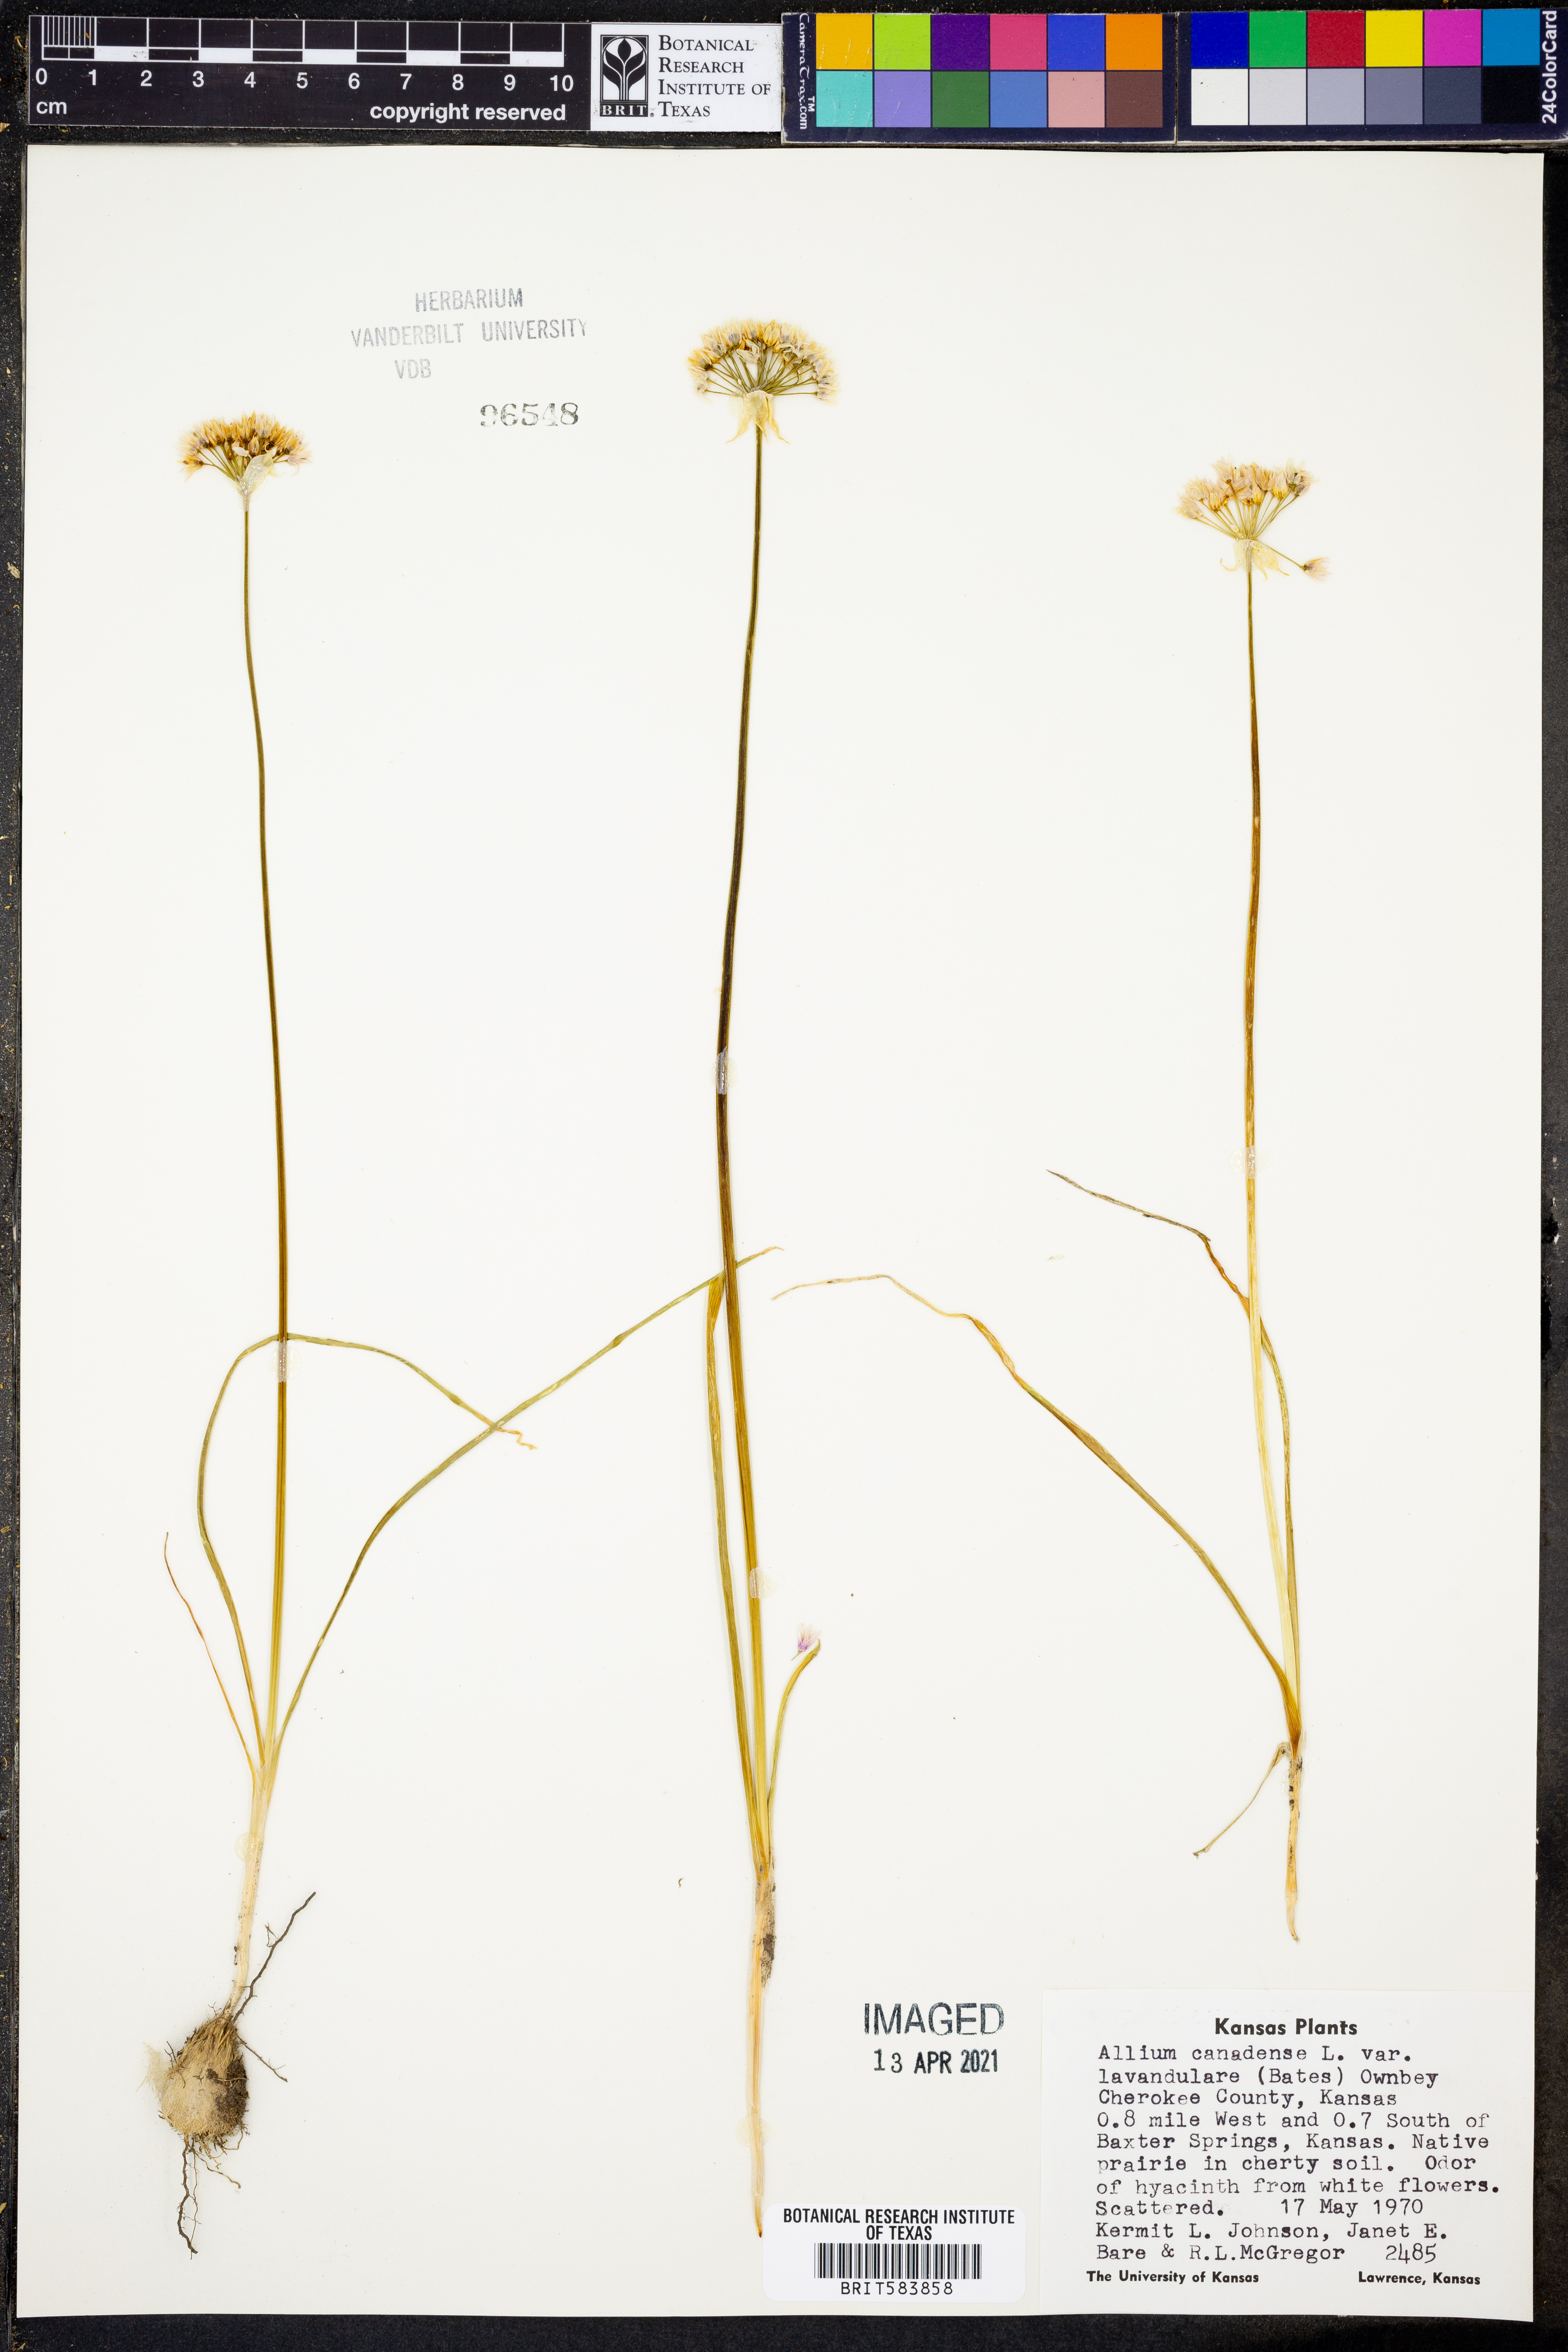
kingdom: Plantae
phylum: Tracheophyta
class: Liliopsida
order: Asparagales
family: Amaryllidaceae
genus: Allium
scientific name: Allium canadense
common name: Meadow garlic
